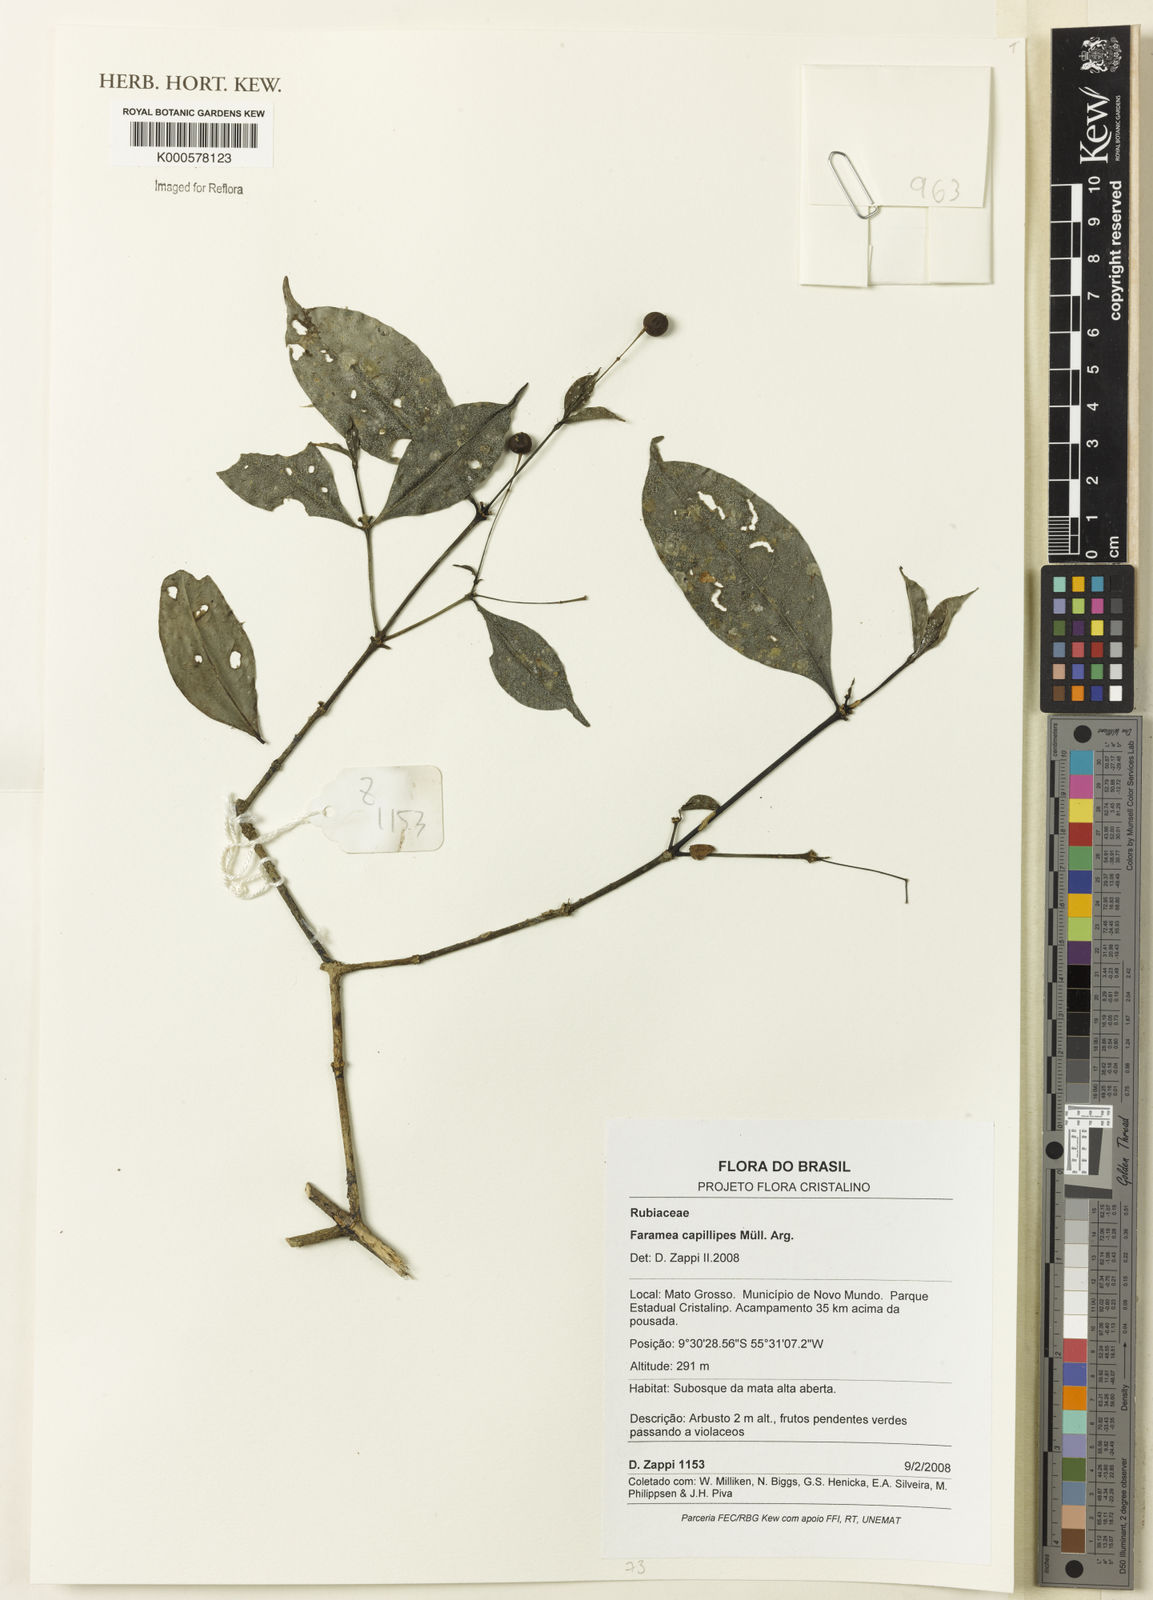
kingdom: Plantae
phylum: Tracheophyta
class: Magnoliopsida
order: Gentianales
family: Rubiaceae
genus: Faramea
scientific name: Faramea
